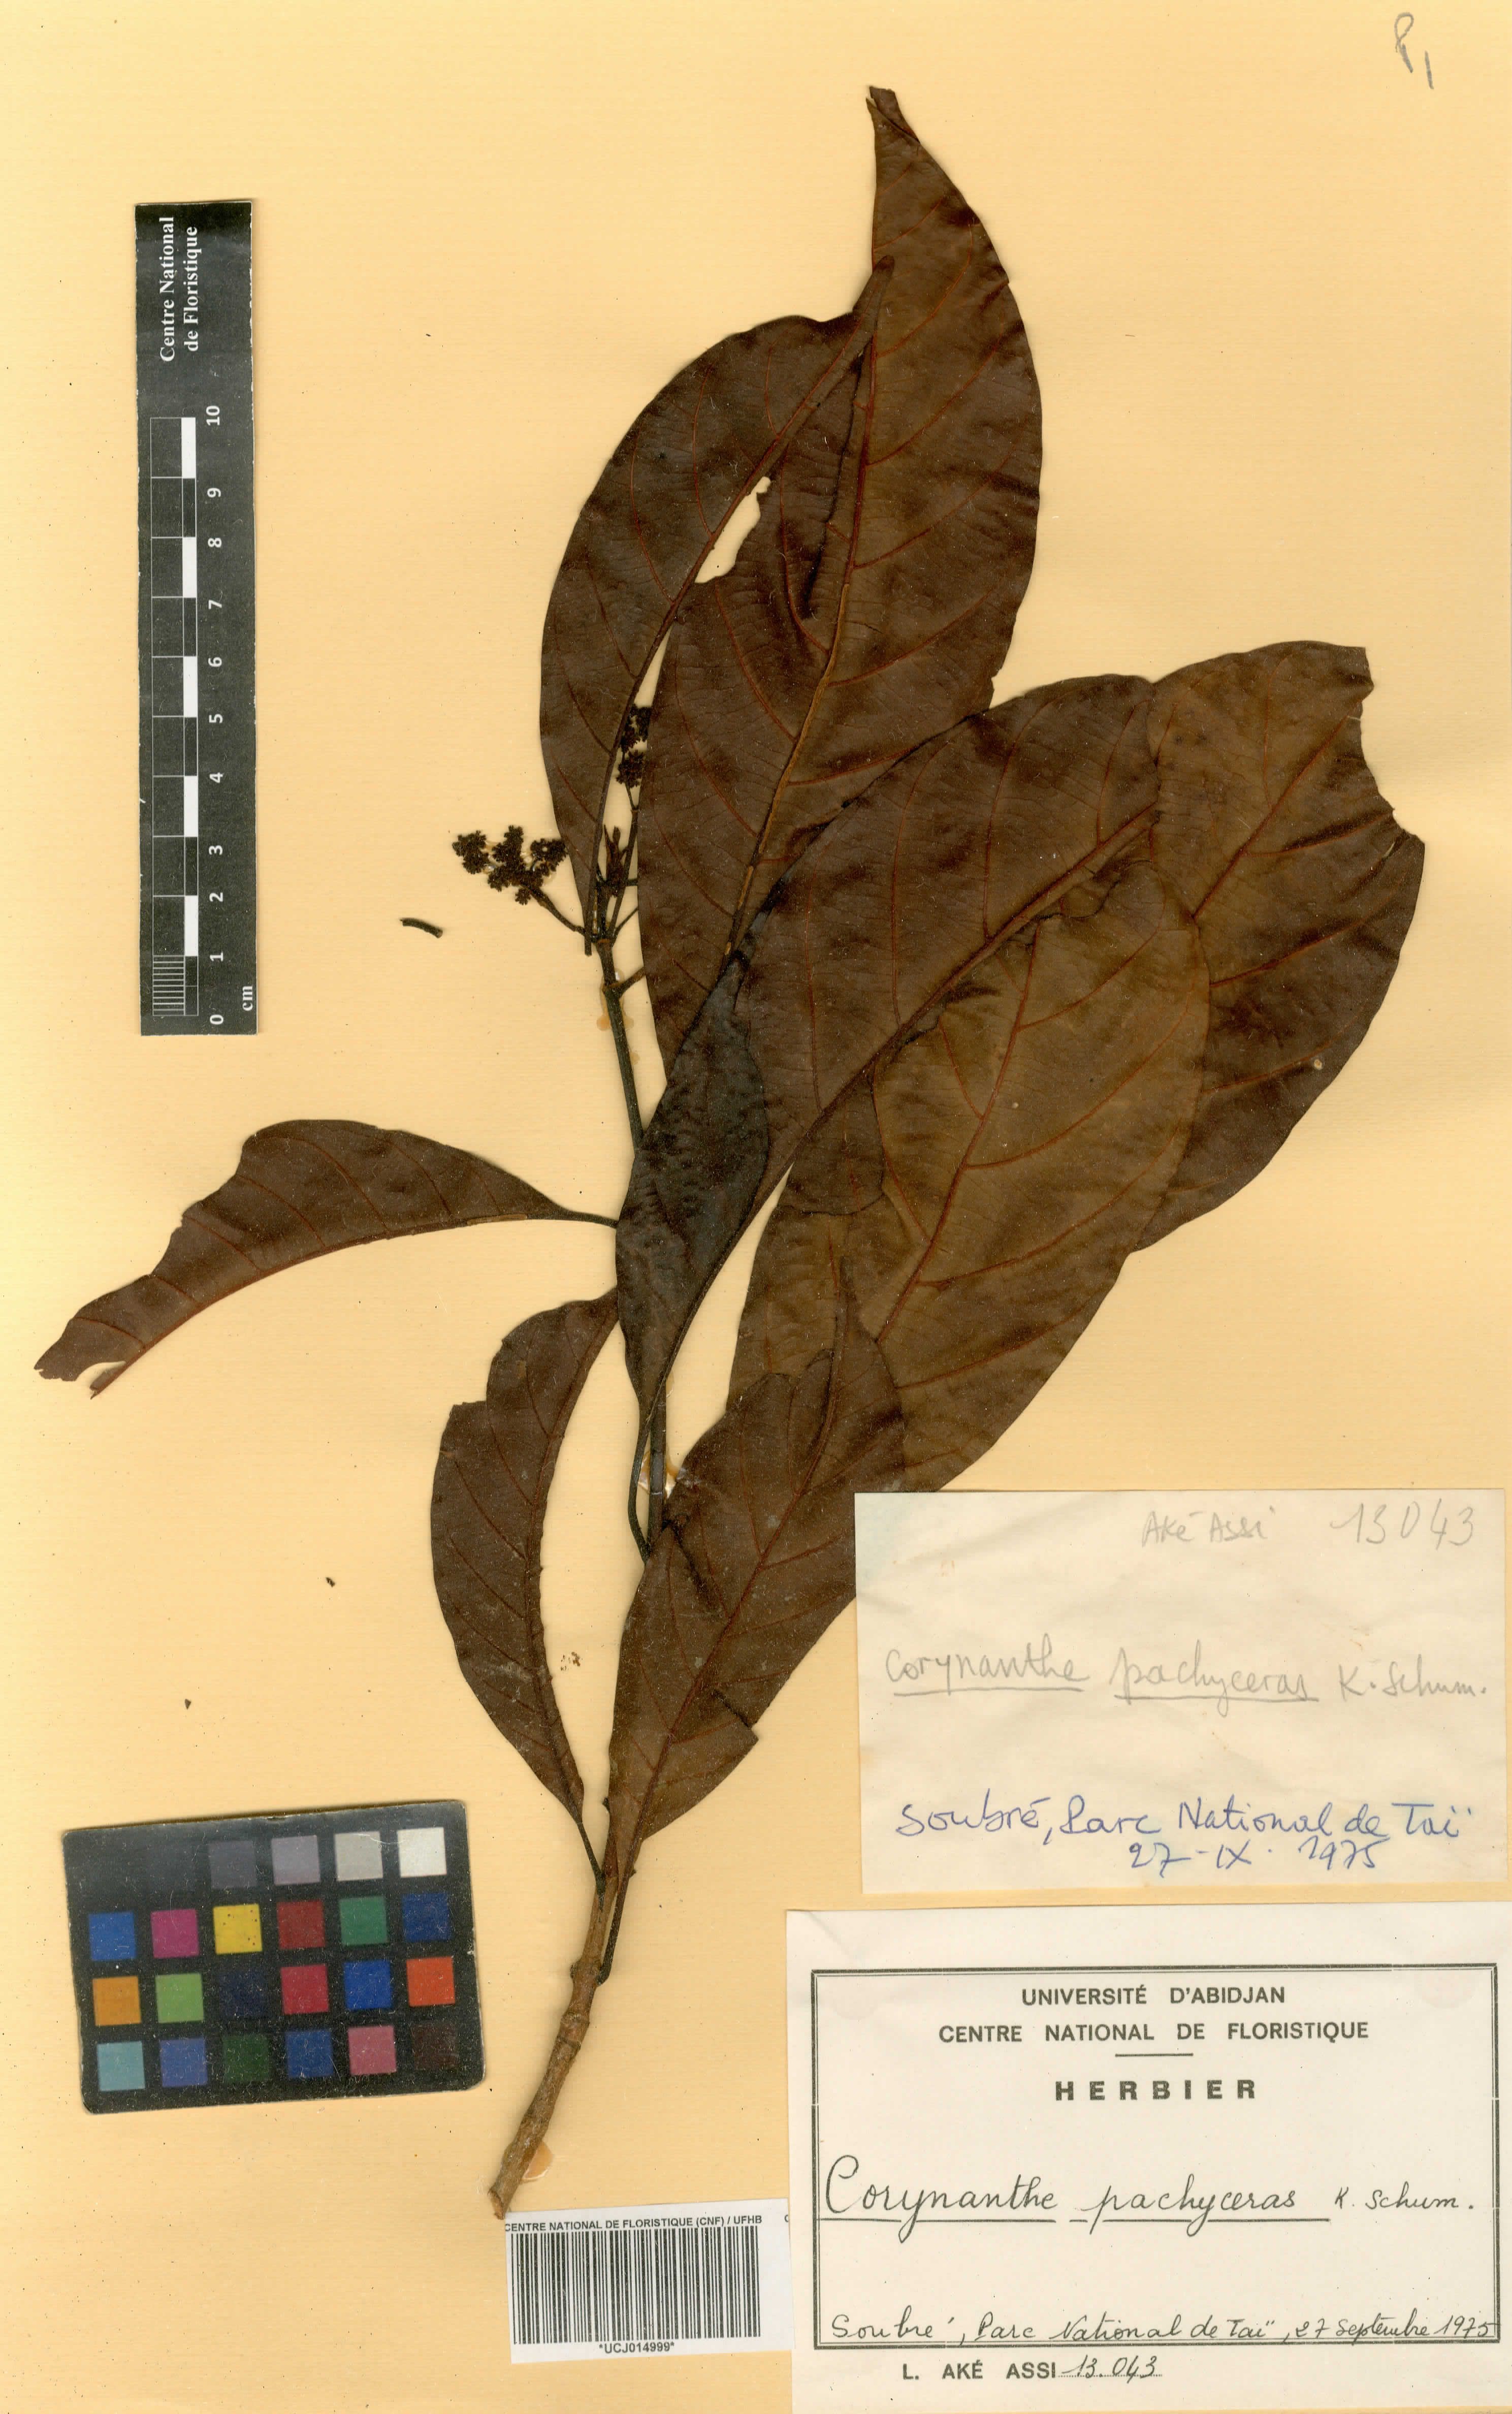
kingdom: Plantae
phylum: Tracheophyta
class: Magnoliopsida
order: Gentianales
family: Rubiaceae
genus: Corynanthe
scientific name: Corynanthe pachyceras
